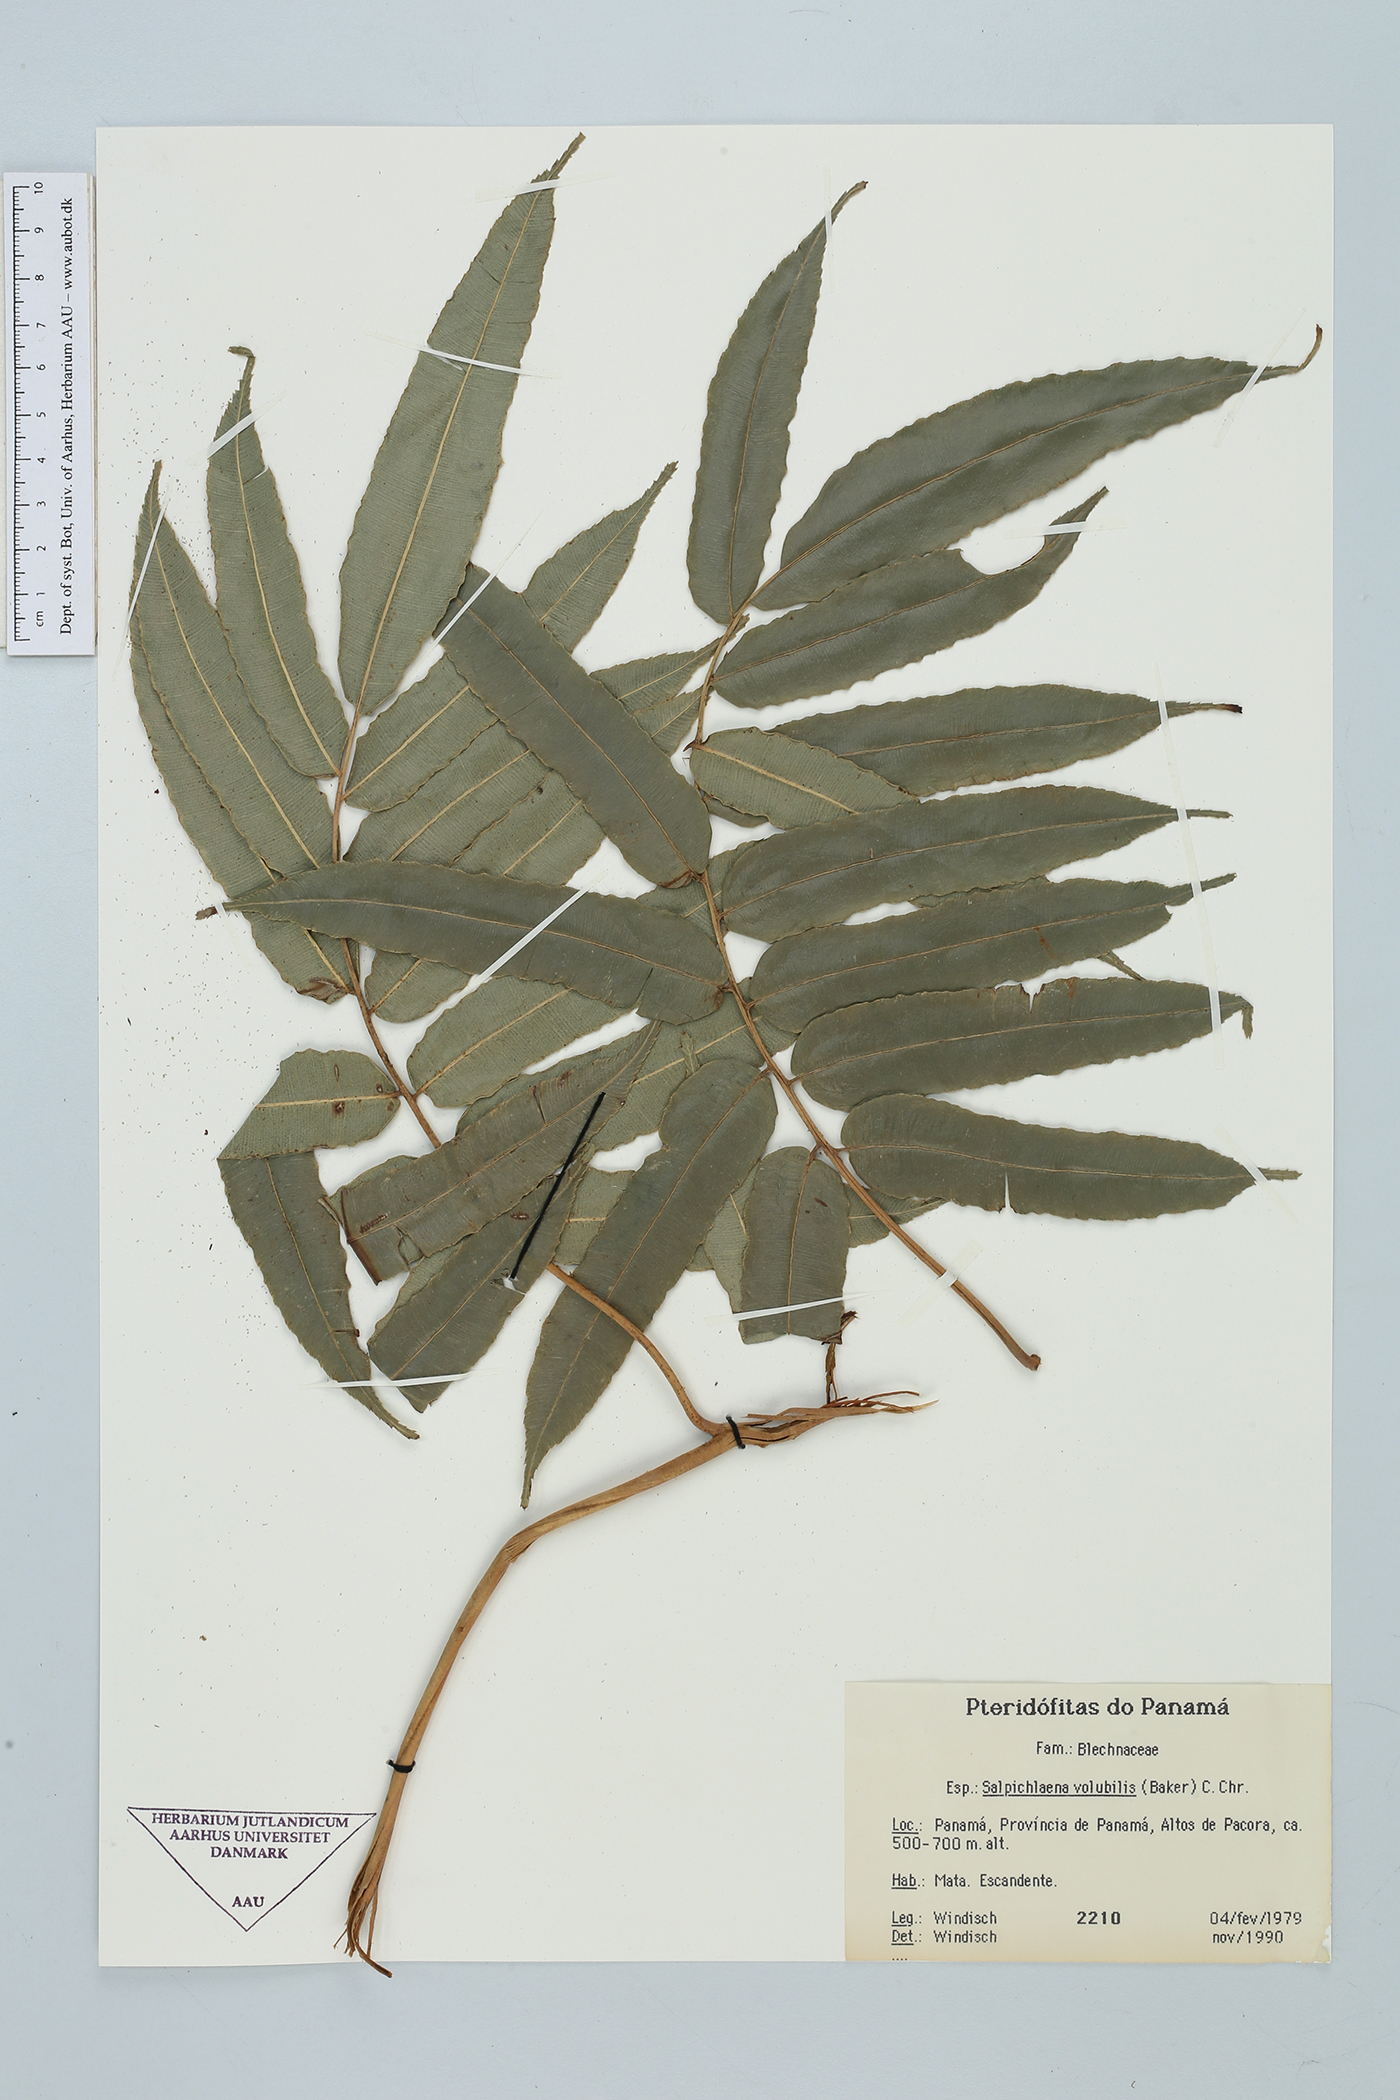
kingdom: Plantae
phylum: Tracheophyta
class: Polypodiopsida
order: Polypodiales
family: Blechnaceae
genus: Salpichlaena
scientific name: Salpichlaena volubilis
